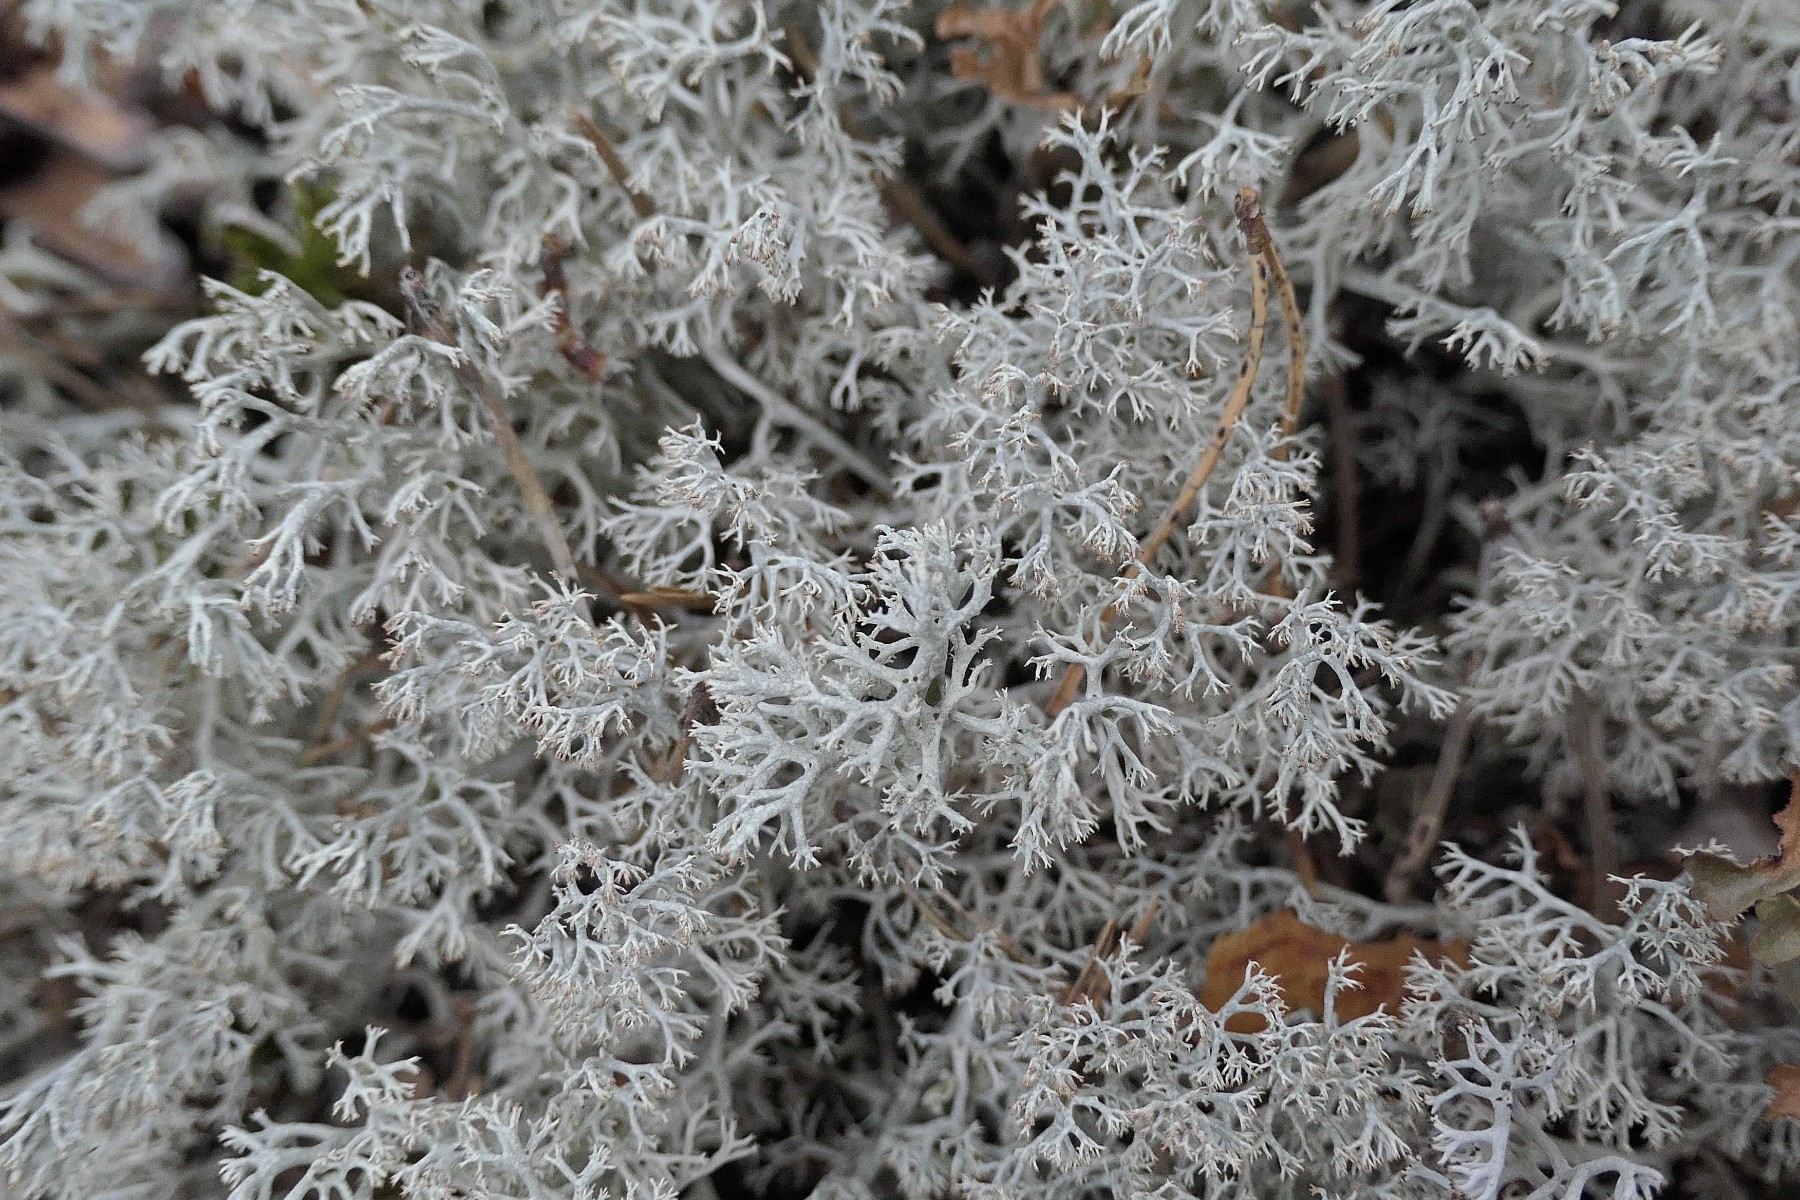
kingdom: Fungi
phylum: Ascomycota
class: Lecanoromycetes
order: Lecanorales
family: Cladoniaceae
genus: Cladonia
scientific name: Cladonia rangiferina
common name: askegrå rensdyrlav
